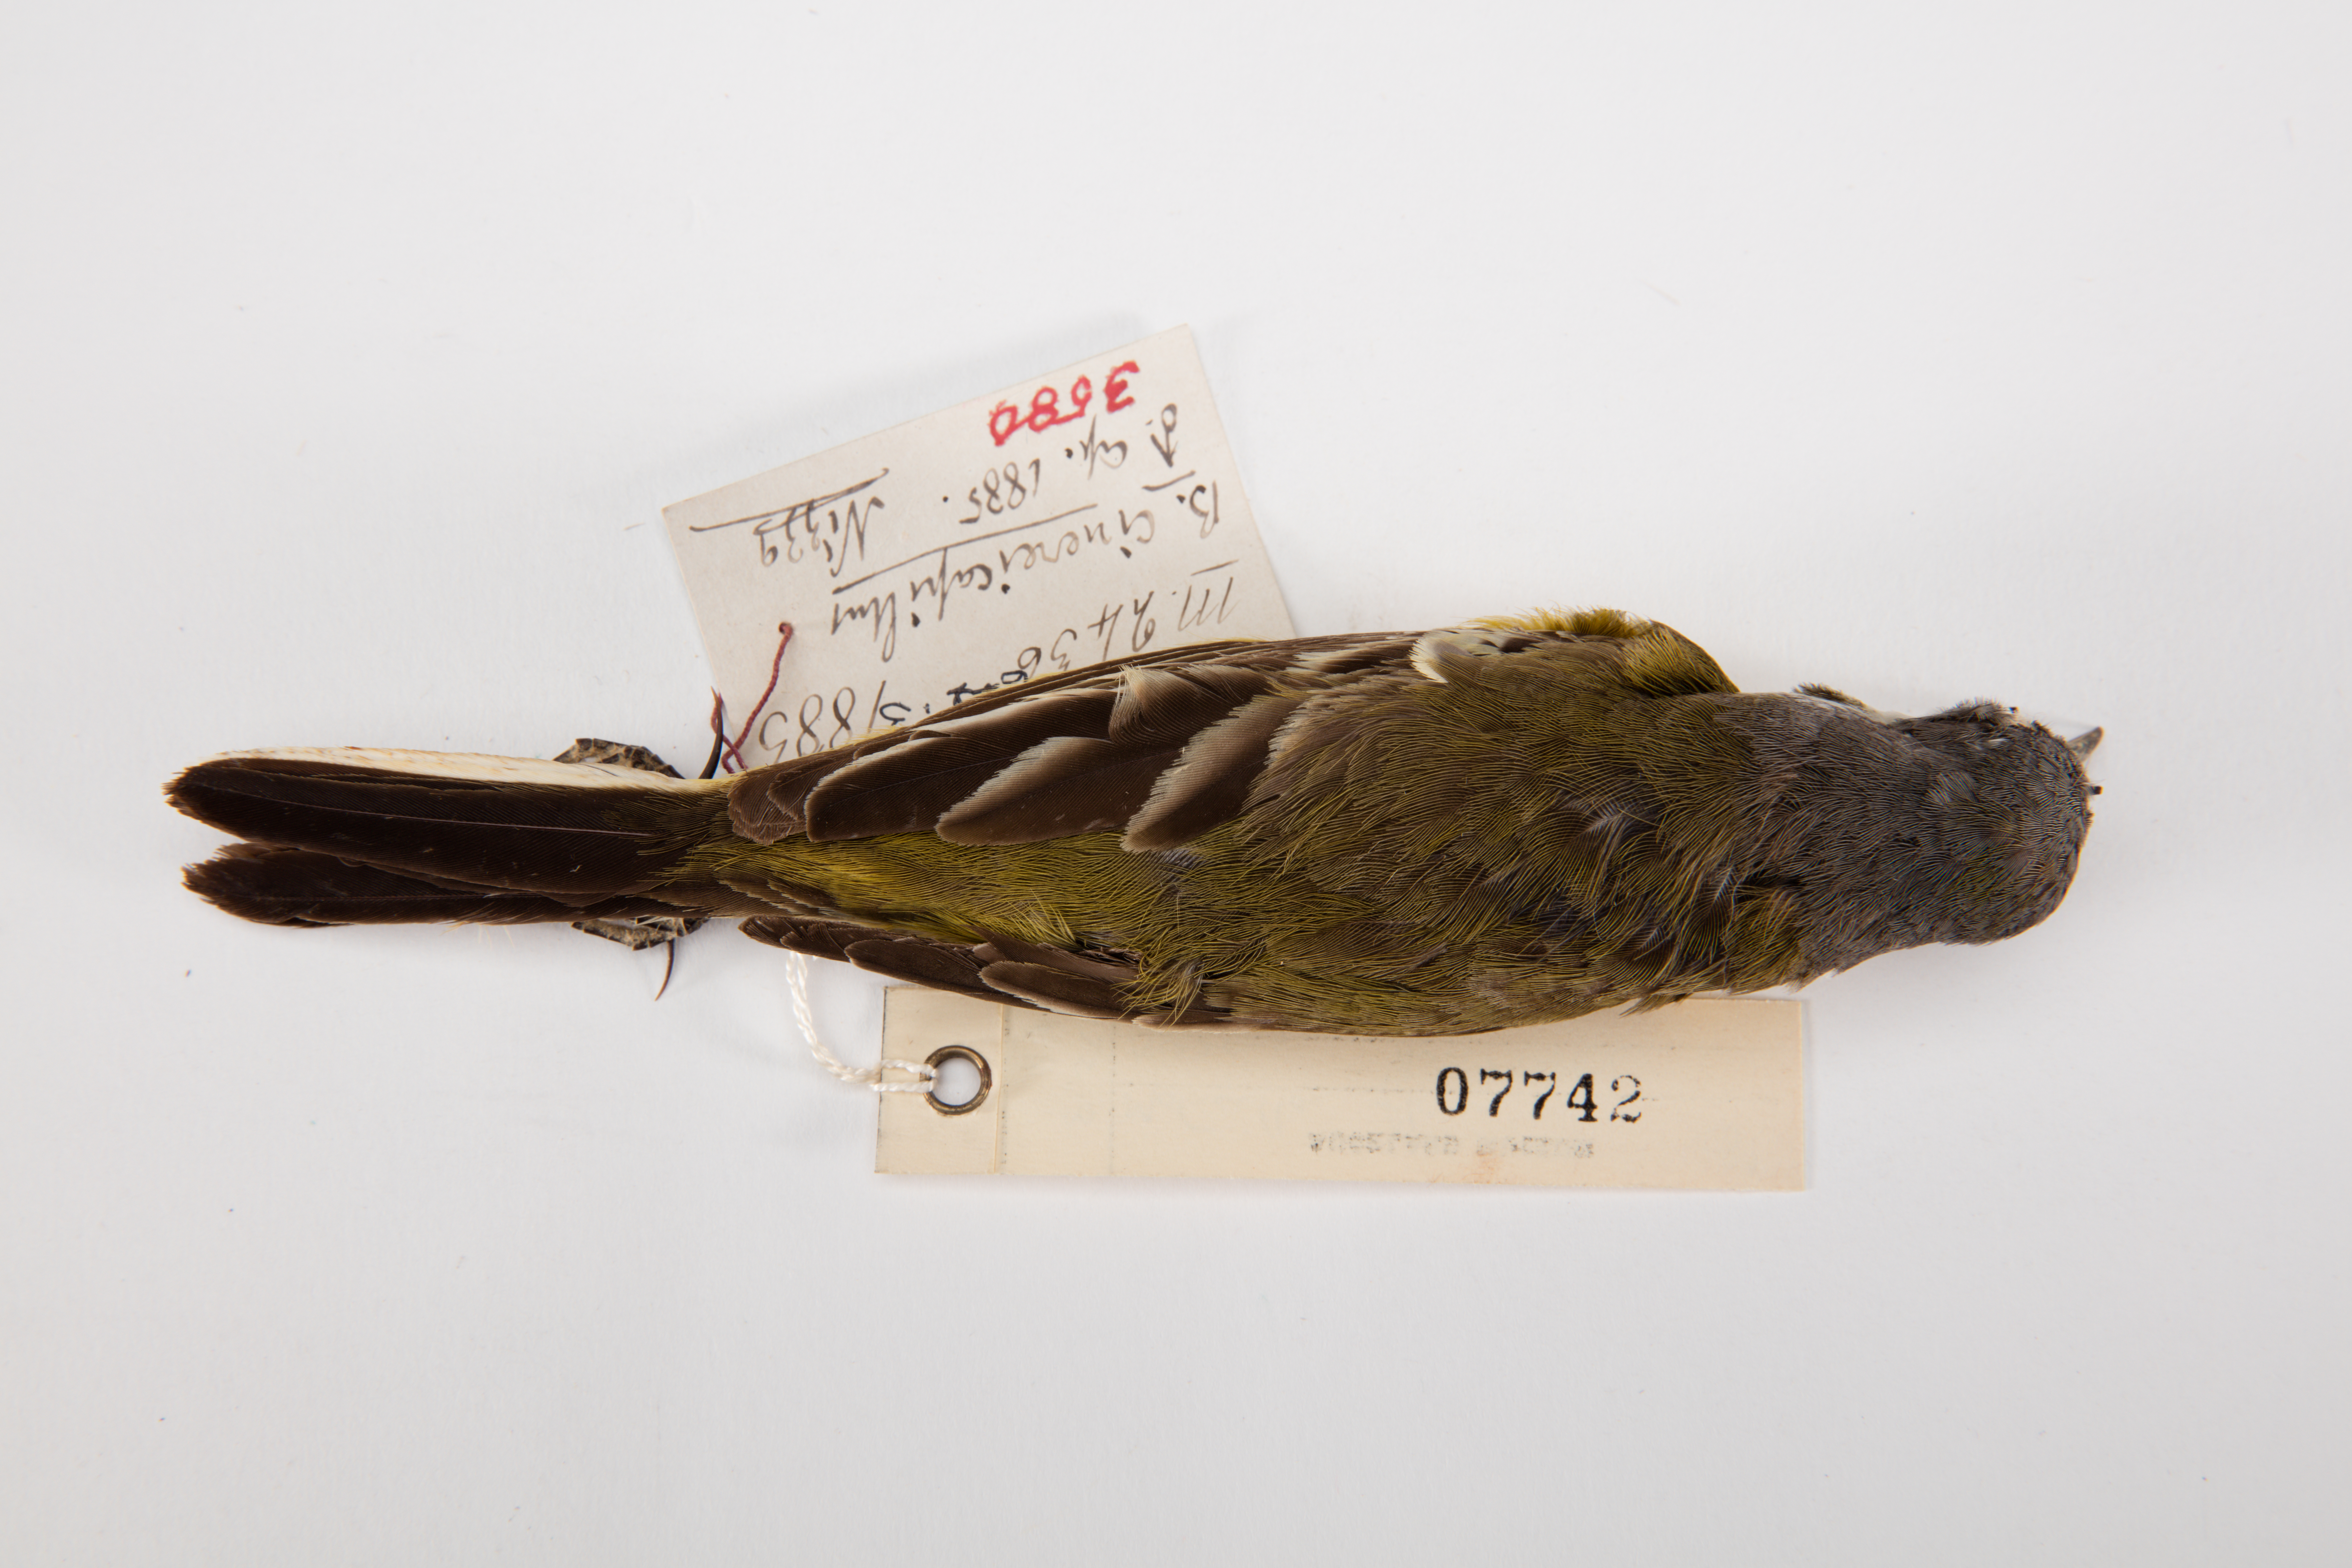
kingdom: Animalia
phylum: Chordata
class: Aves
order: Passeriformes
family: Motacillidae
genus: Motacilla
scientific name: Motacilla flava
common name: Western yellow wagtail
